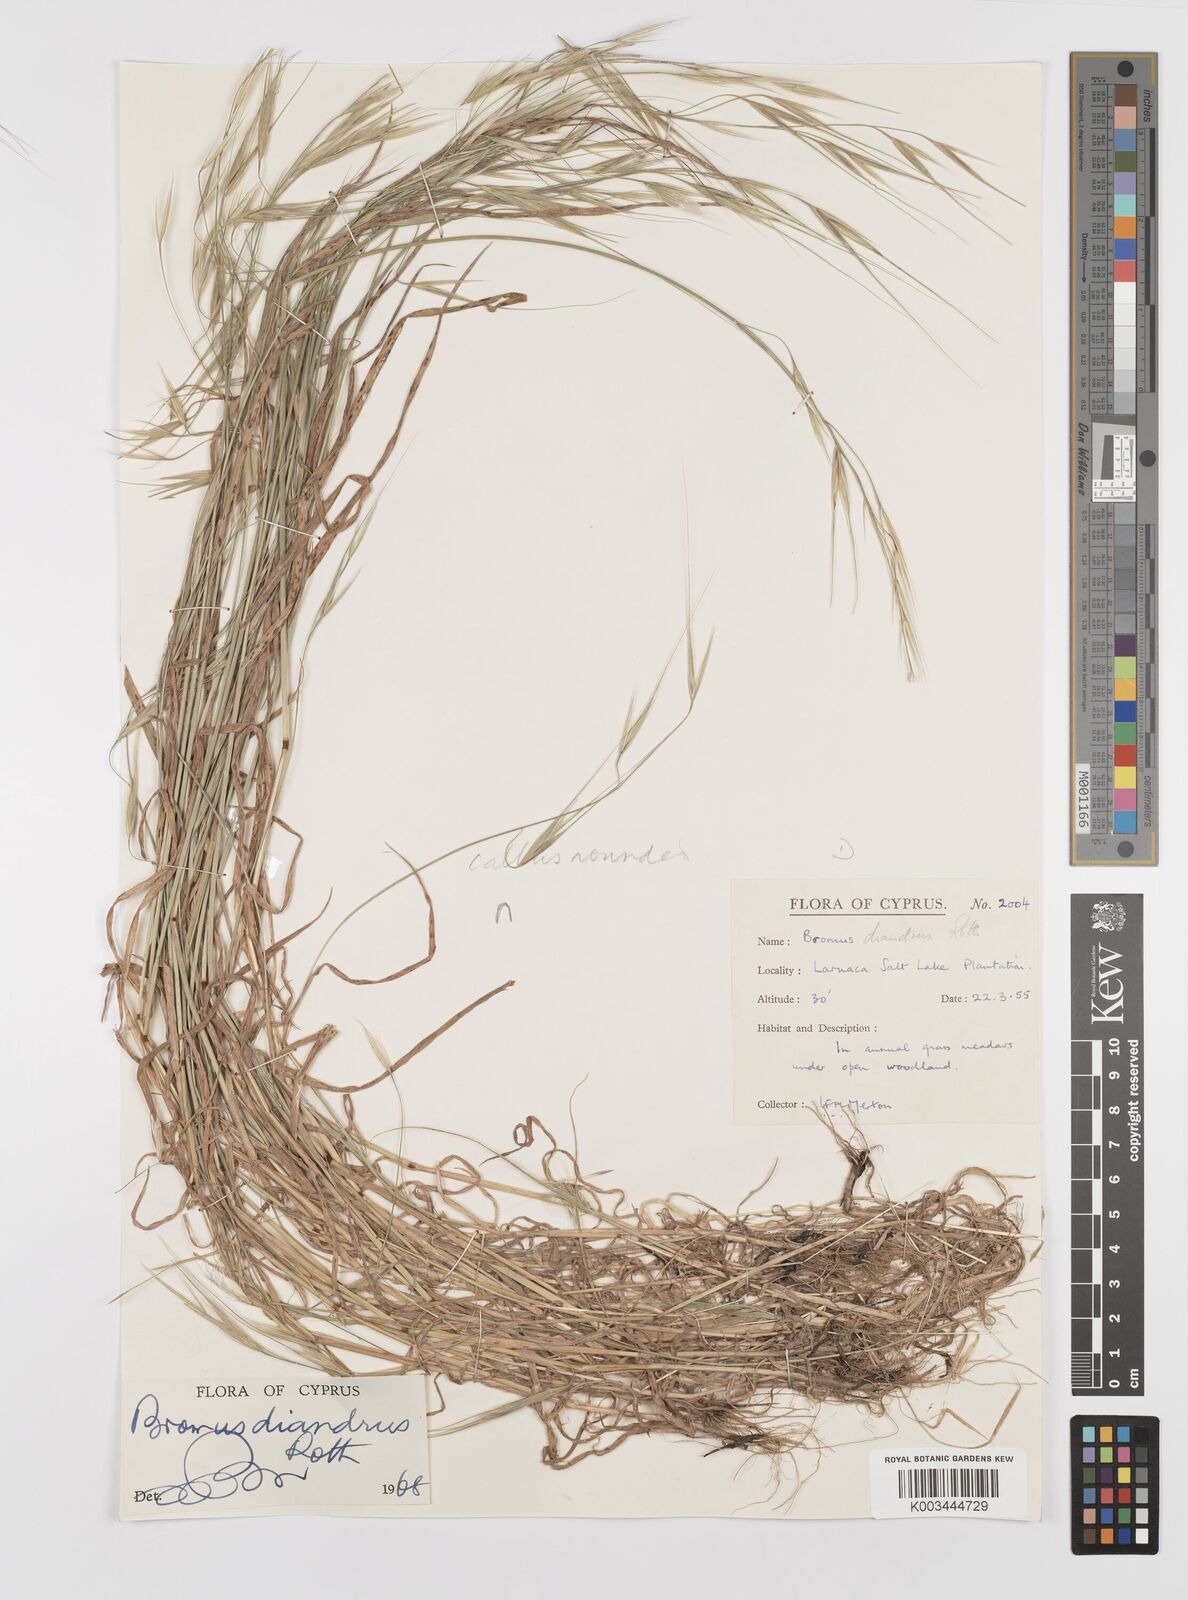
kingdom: Plantae
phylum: Tracheophyta
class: Liliopsida
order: Poales
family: Poaceae
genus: Bromus
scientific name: Bromus diandrus
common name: Ripgut brome
